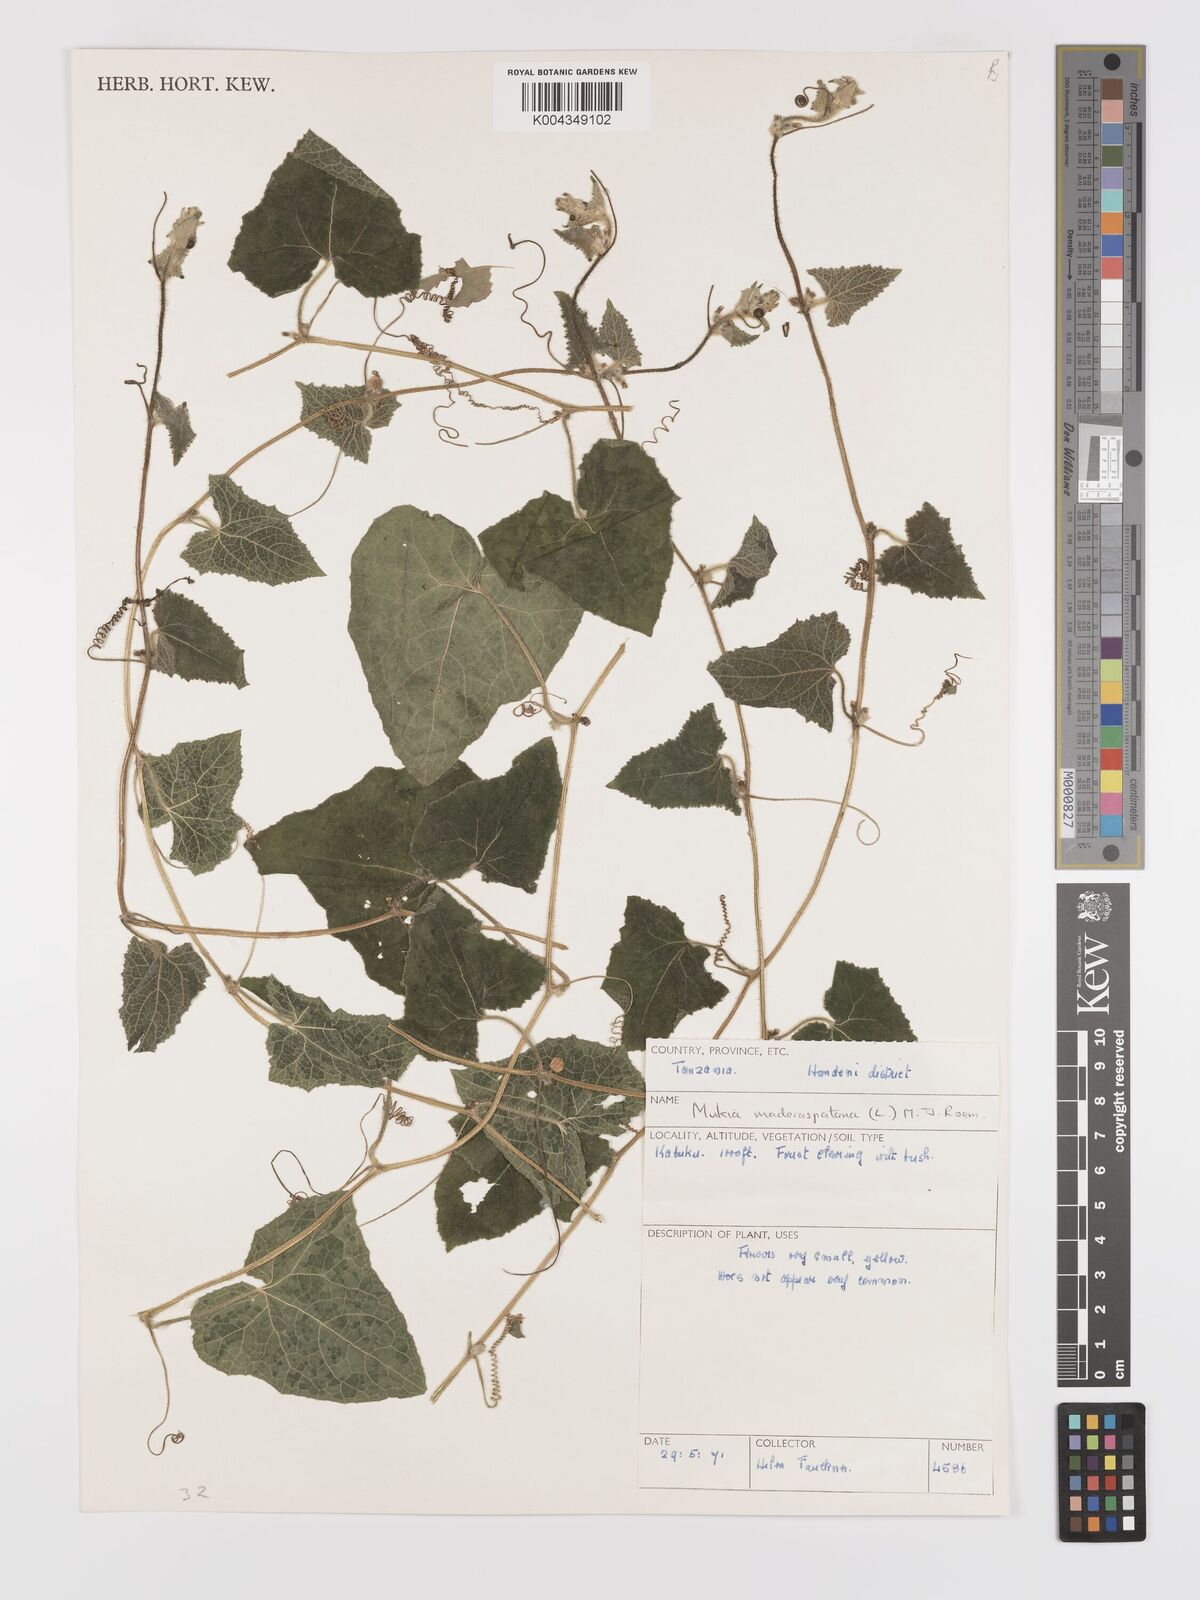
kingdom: Plantae
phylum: Tracheophyta
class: Magnoliopsida
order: Cucurbitales
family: Cucurbitaceae
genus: Cucumis
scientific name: Cucumis maderaspatanus
